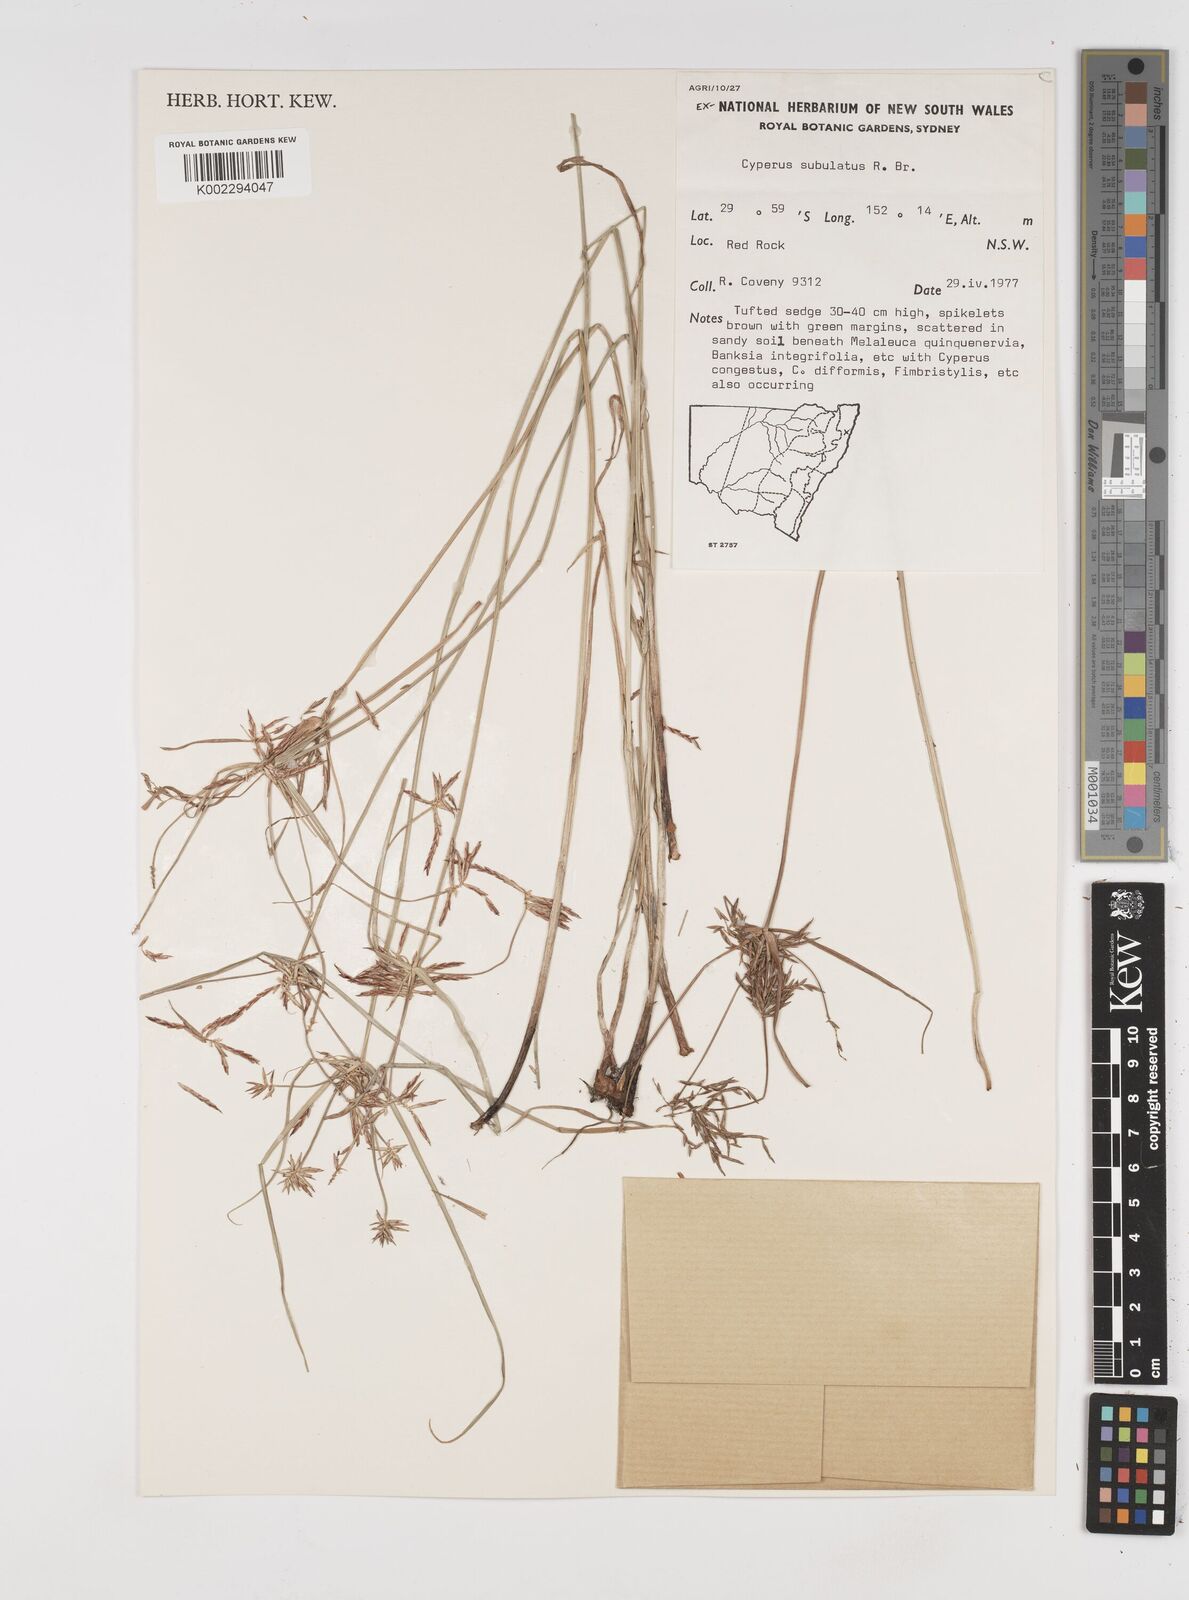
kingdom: Plantae
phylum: Tracheophyta
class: Liliopsida
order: Poales
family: Cyperaceae
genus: Cyperus
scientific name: Cyperus subulatus
